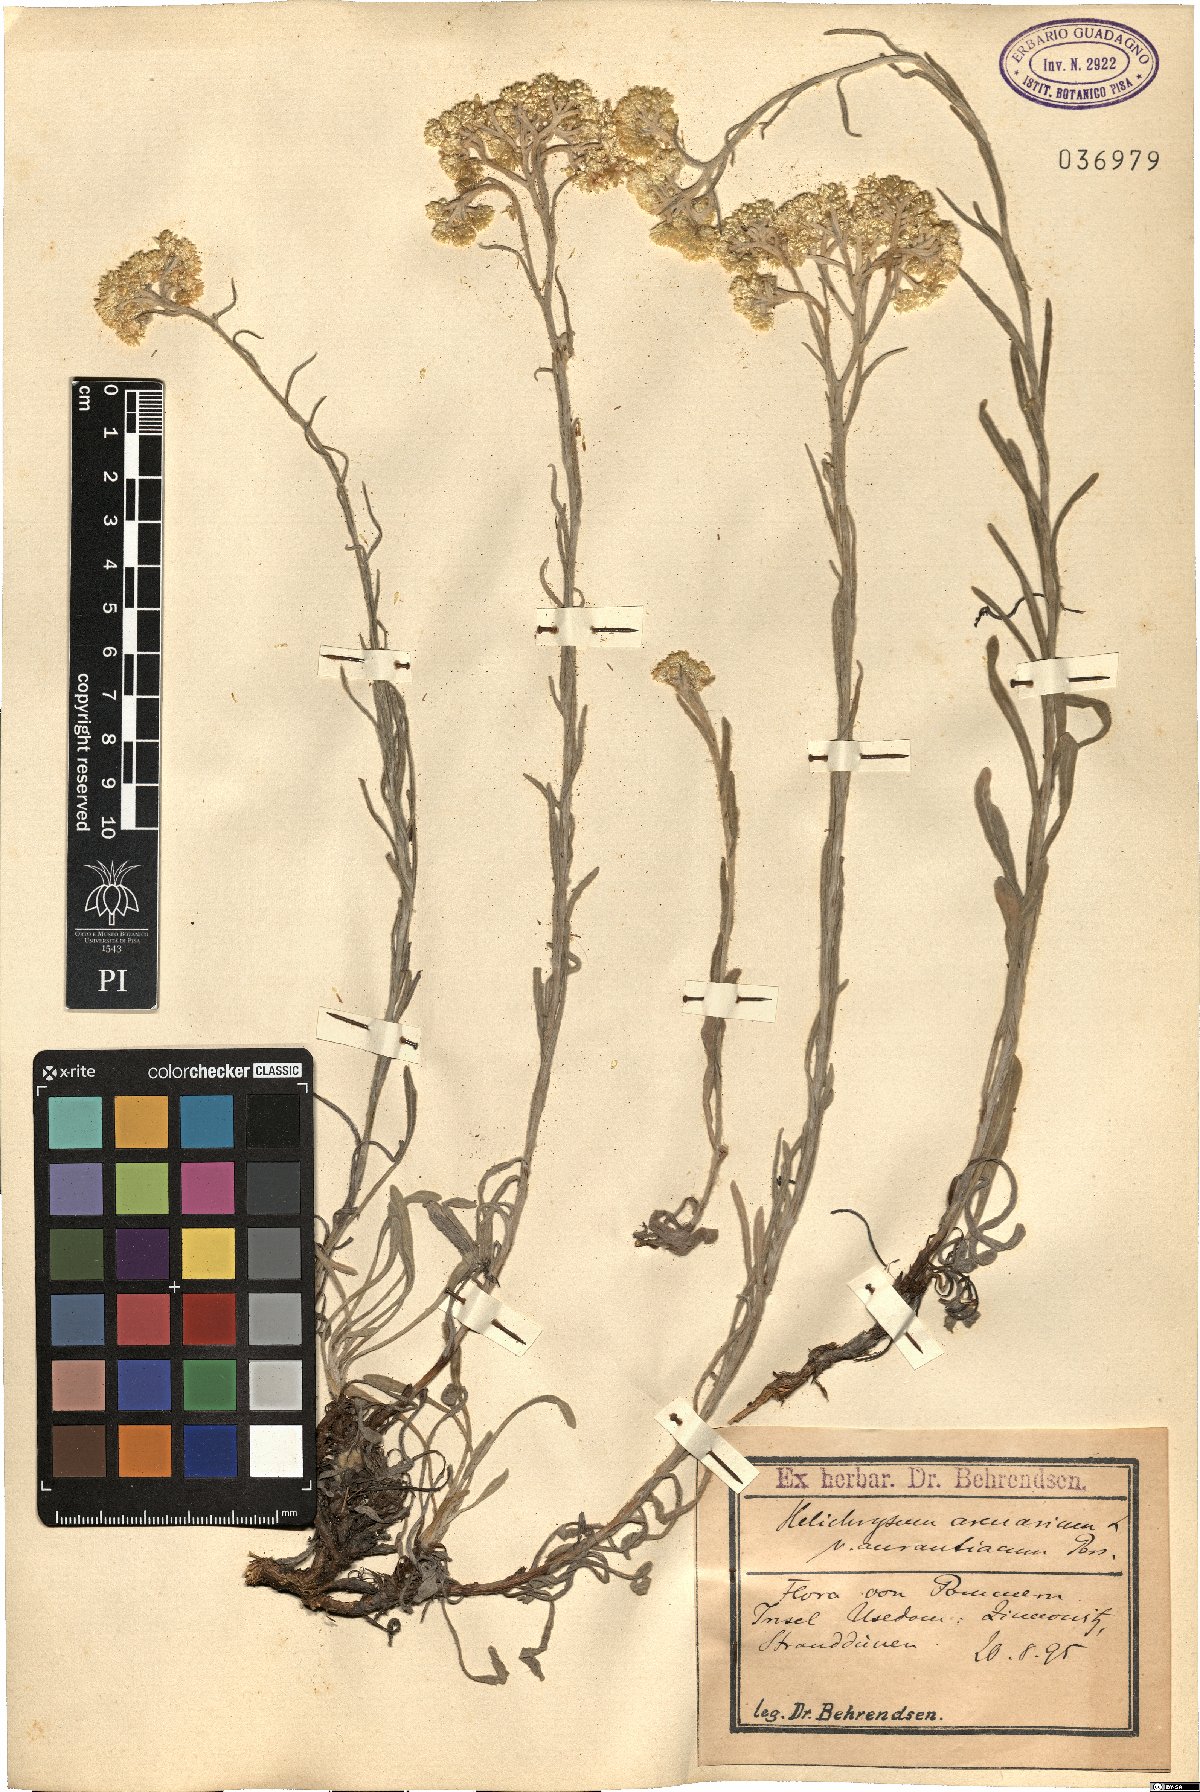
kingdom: Plantae
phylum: Tracheophyta
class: Magnoliopsida
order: Asterales
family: Asteraceae
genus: Helichrysum
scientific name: Helichrysum arenarium
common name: Strawflower
